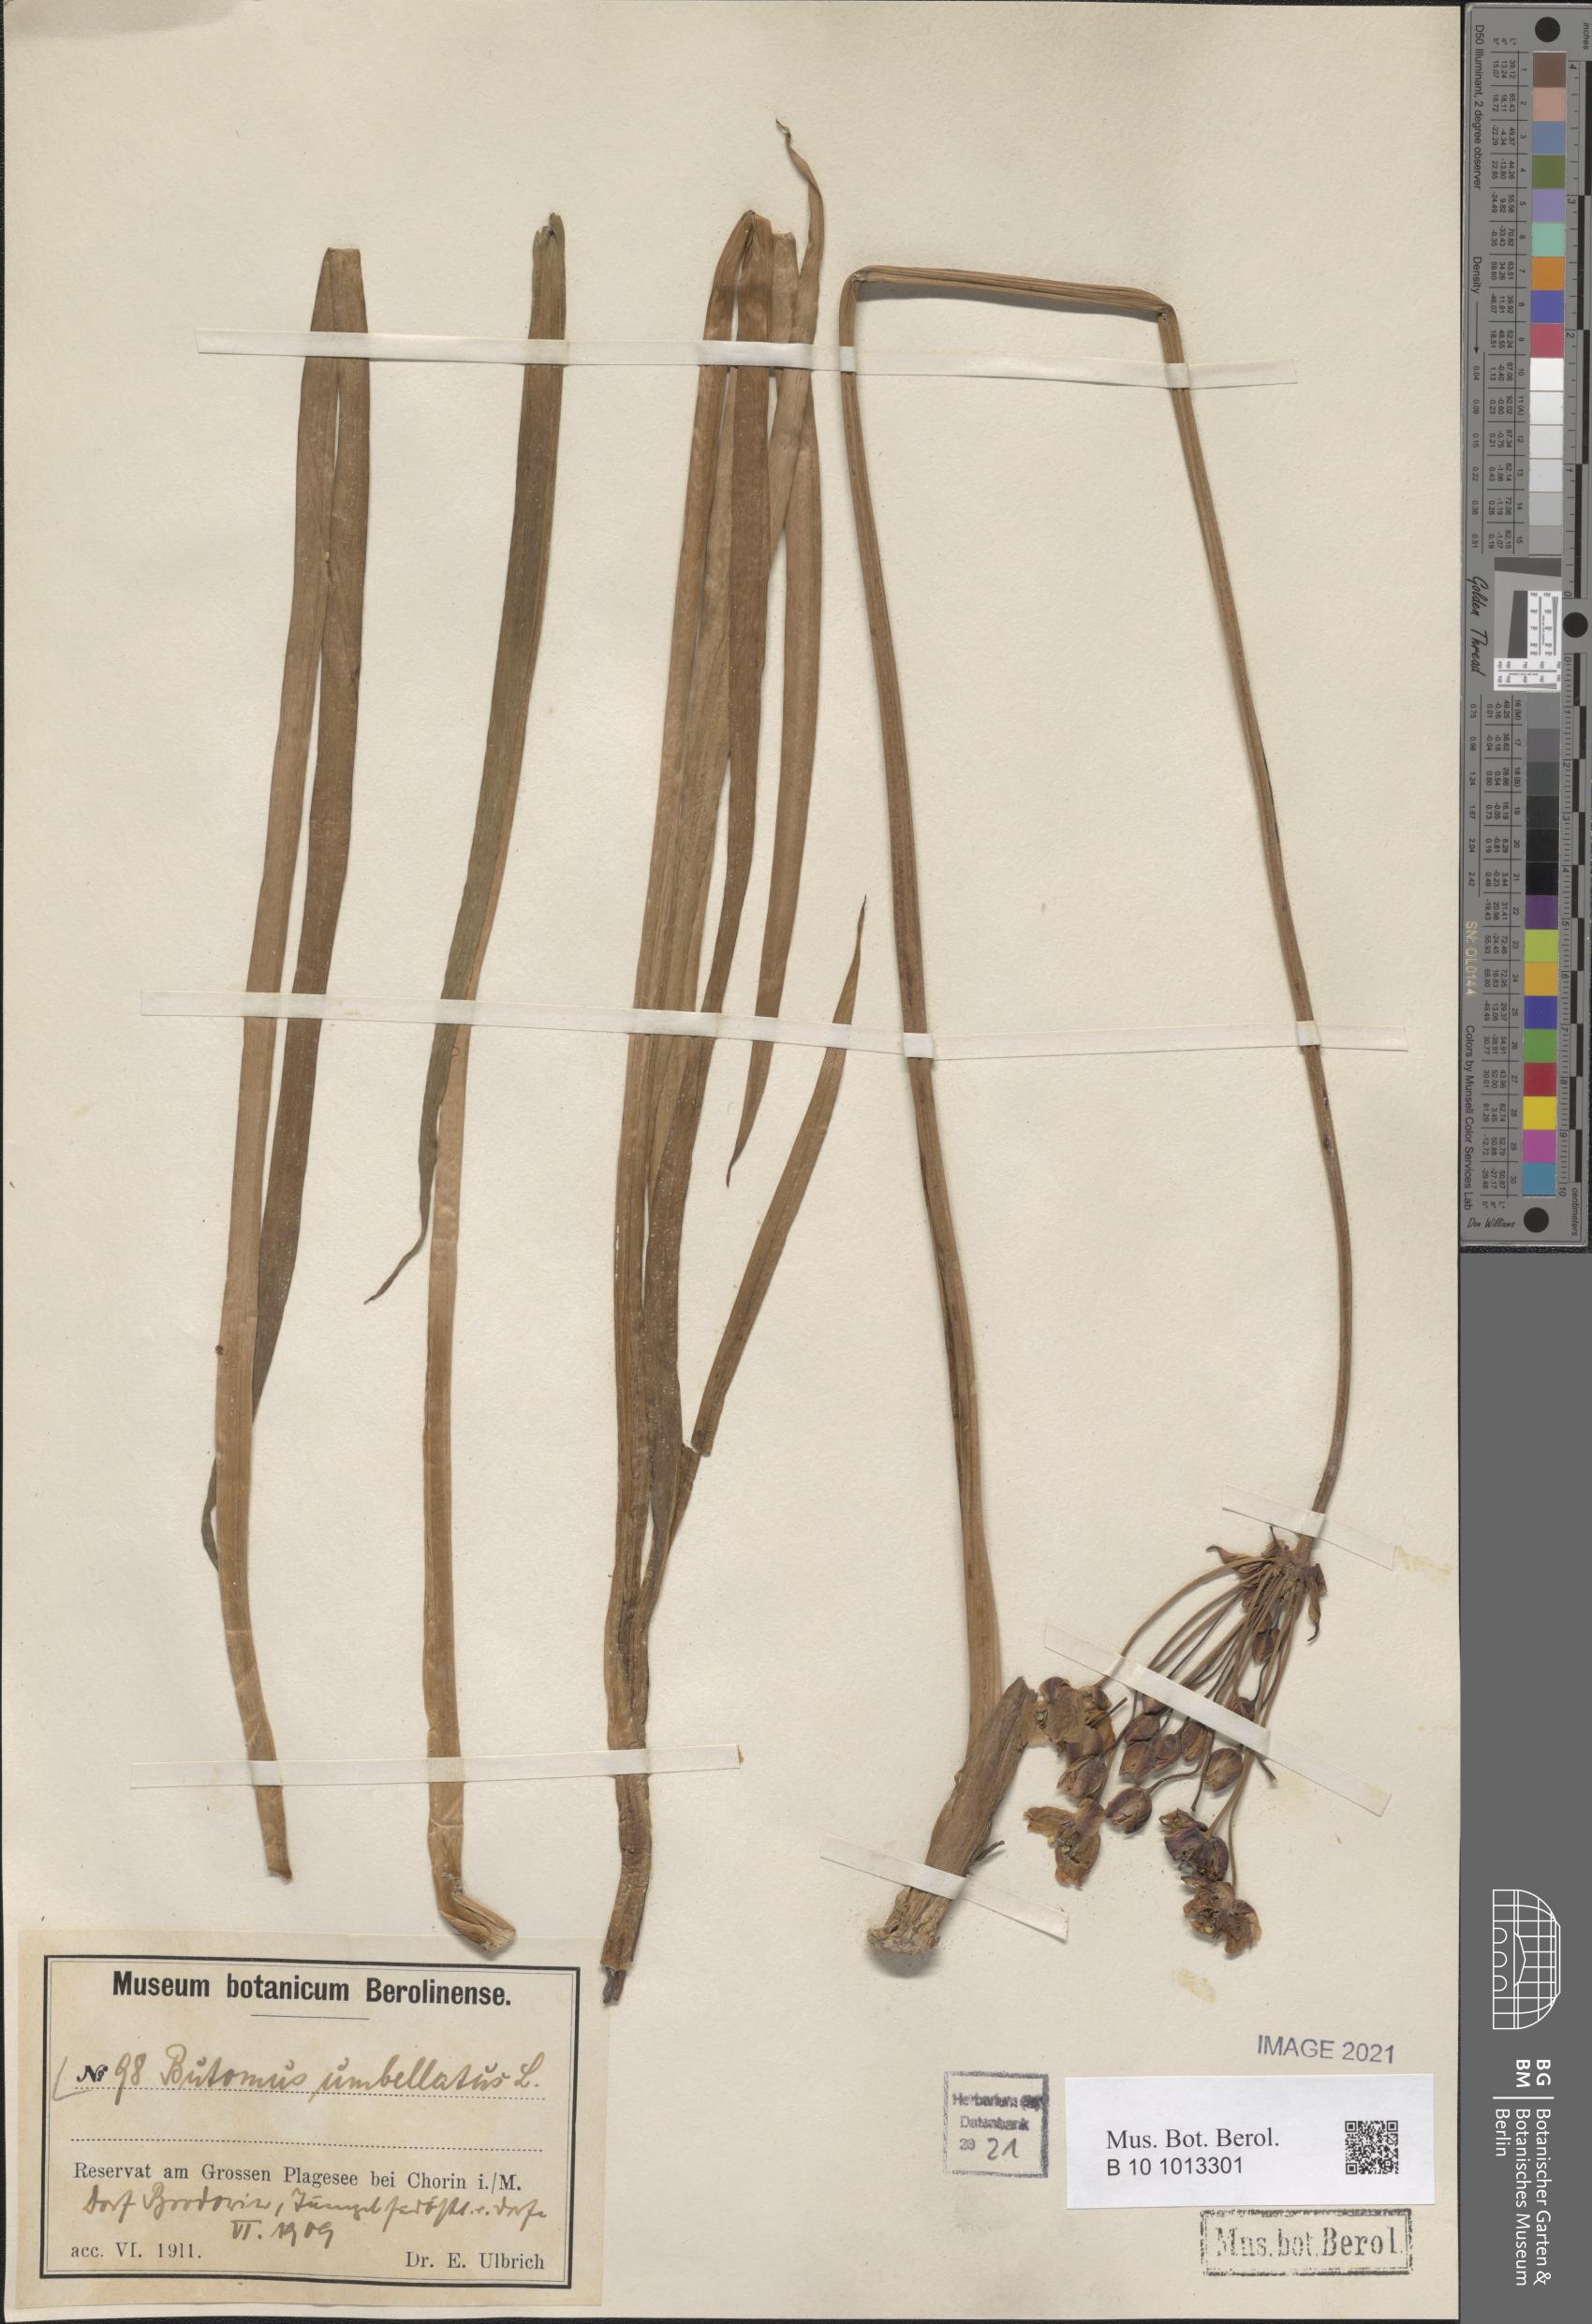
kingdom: Plantae
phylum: Tracheophyta
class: Liliopsida
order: Alismatales
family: Butomaceae
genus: Butomus
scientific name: Butomus umbellatus
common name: Flowering-rush
